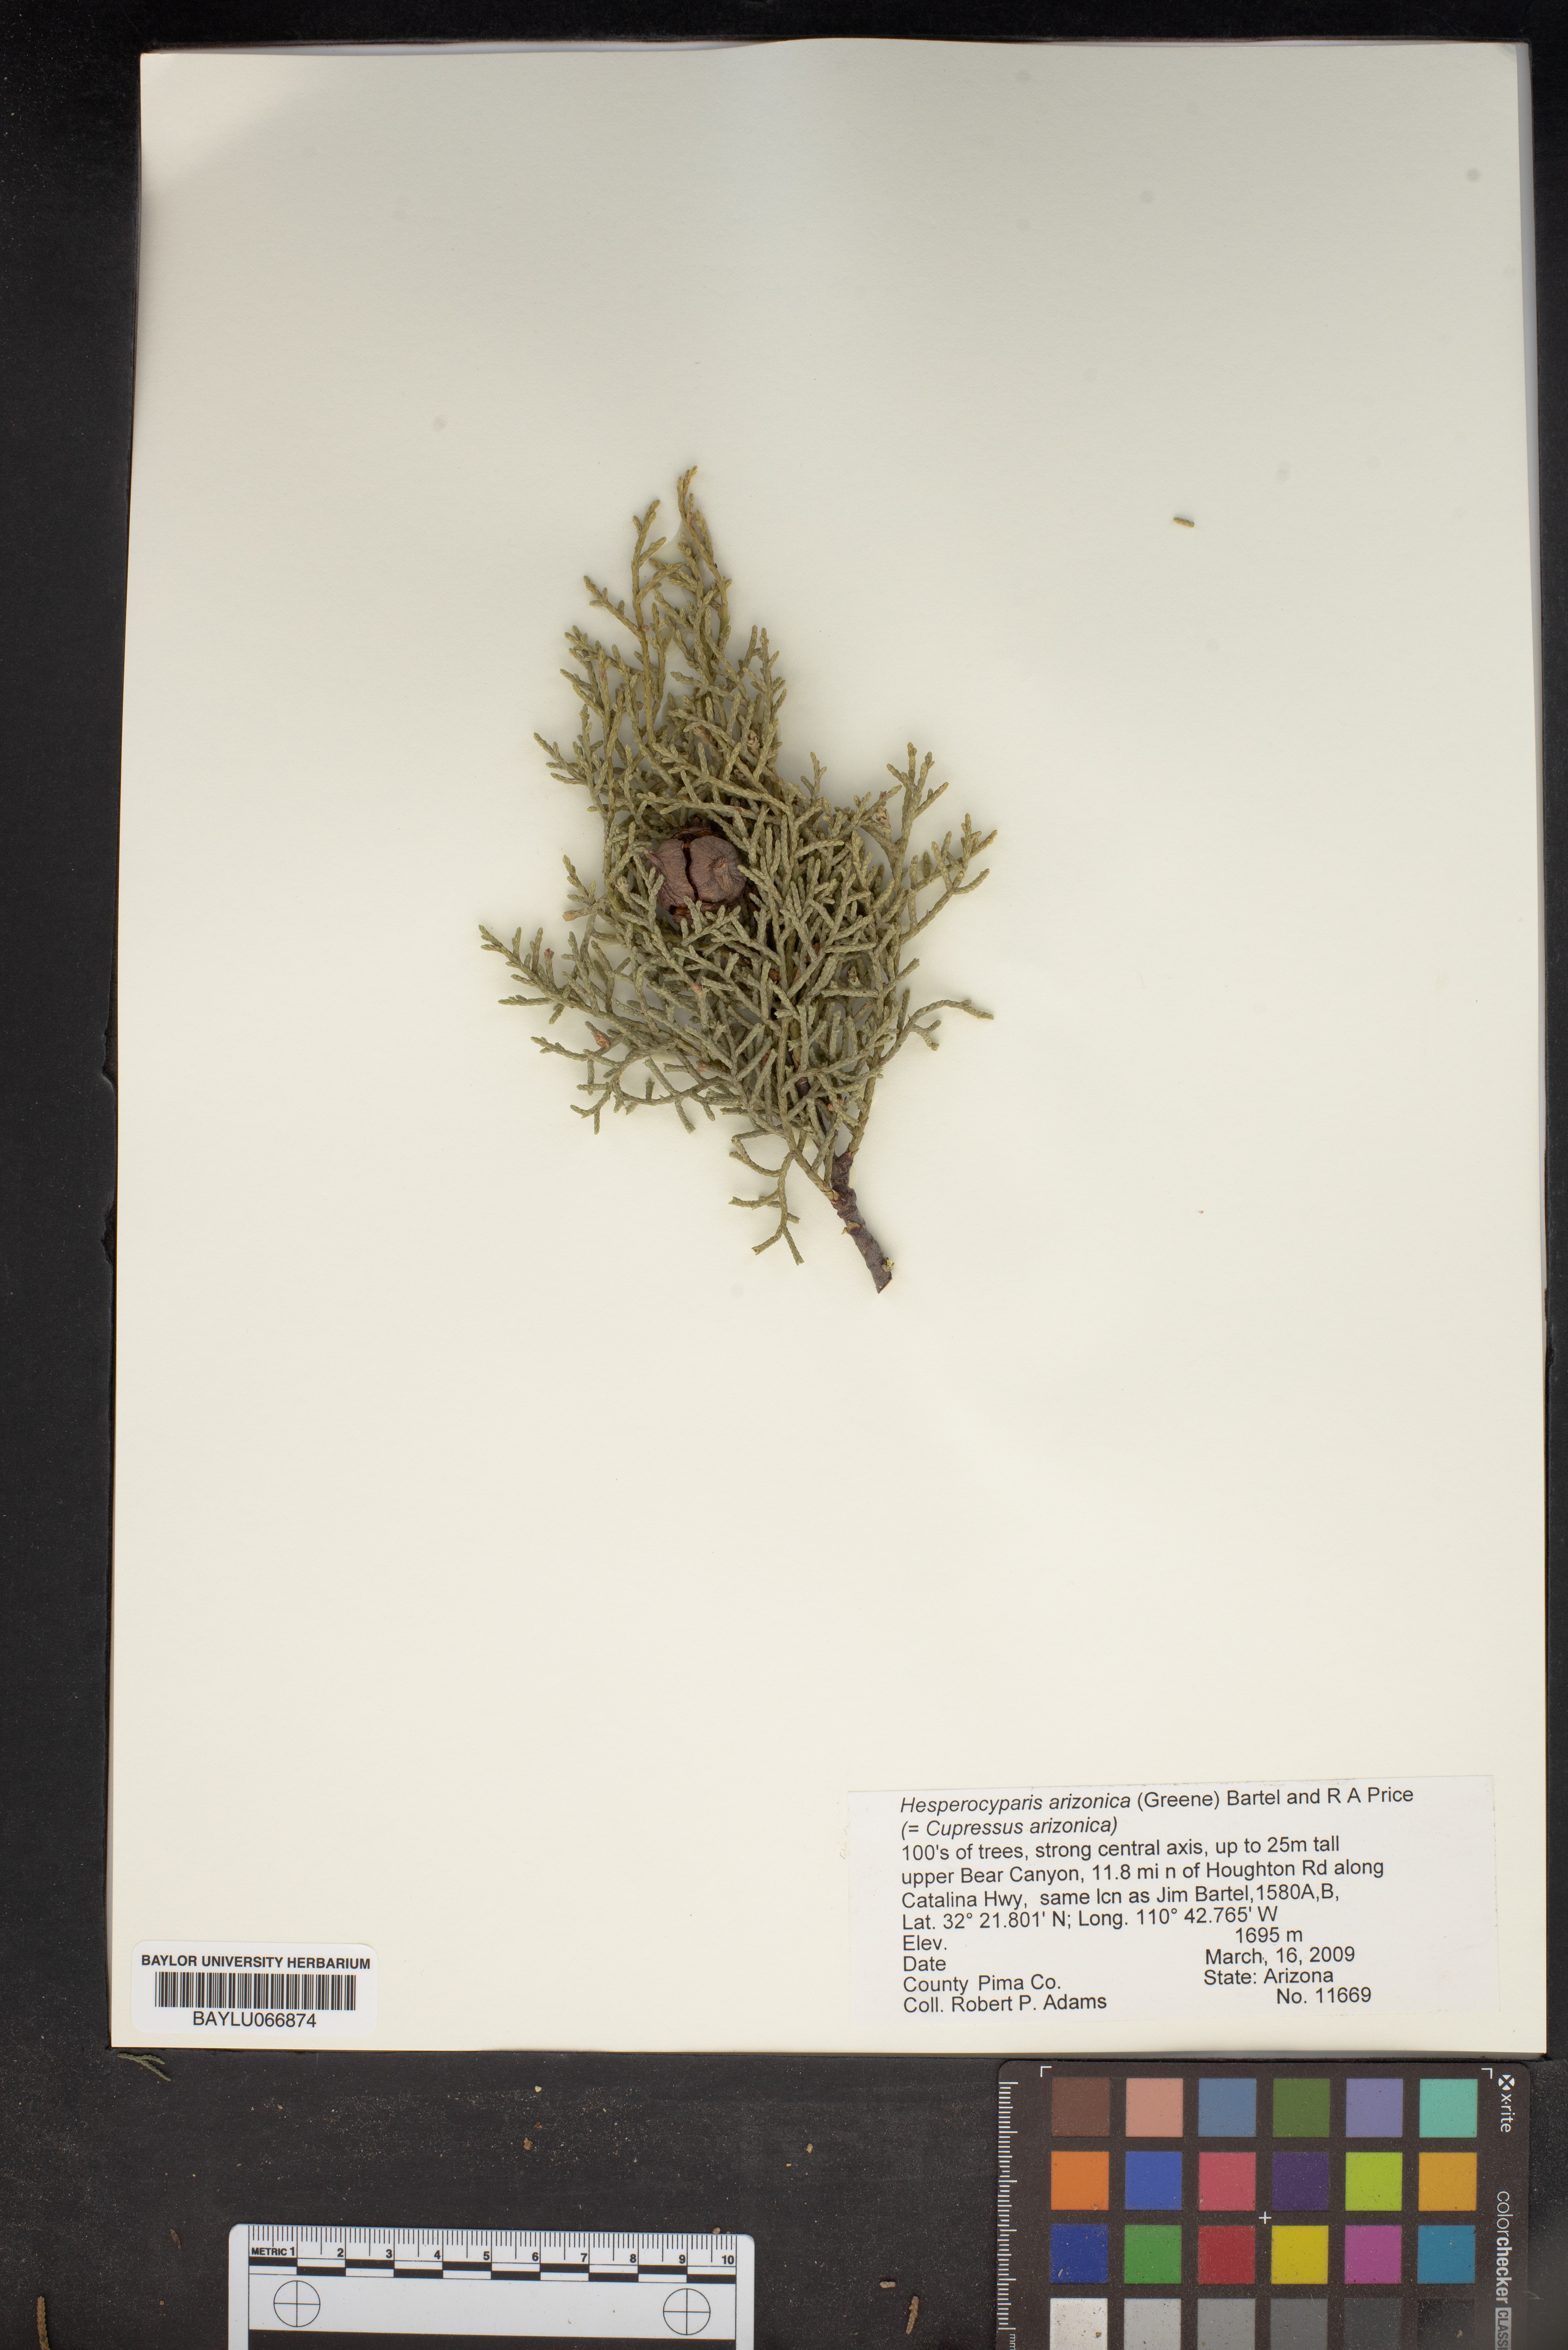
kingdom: Plantae
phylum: Tracheophyta
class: Pinopsida
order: Pinales
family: Cupressaceae
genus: Cupressus
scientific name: Cupressus arizonica
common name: Arizona cypress
